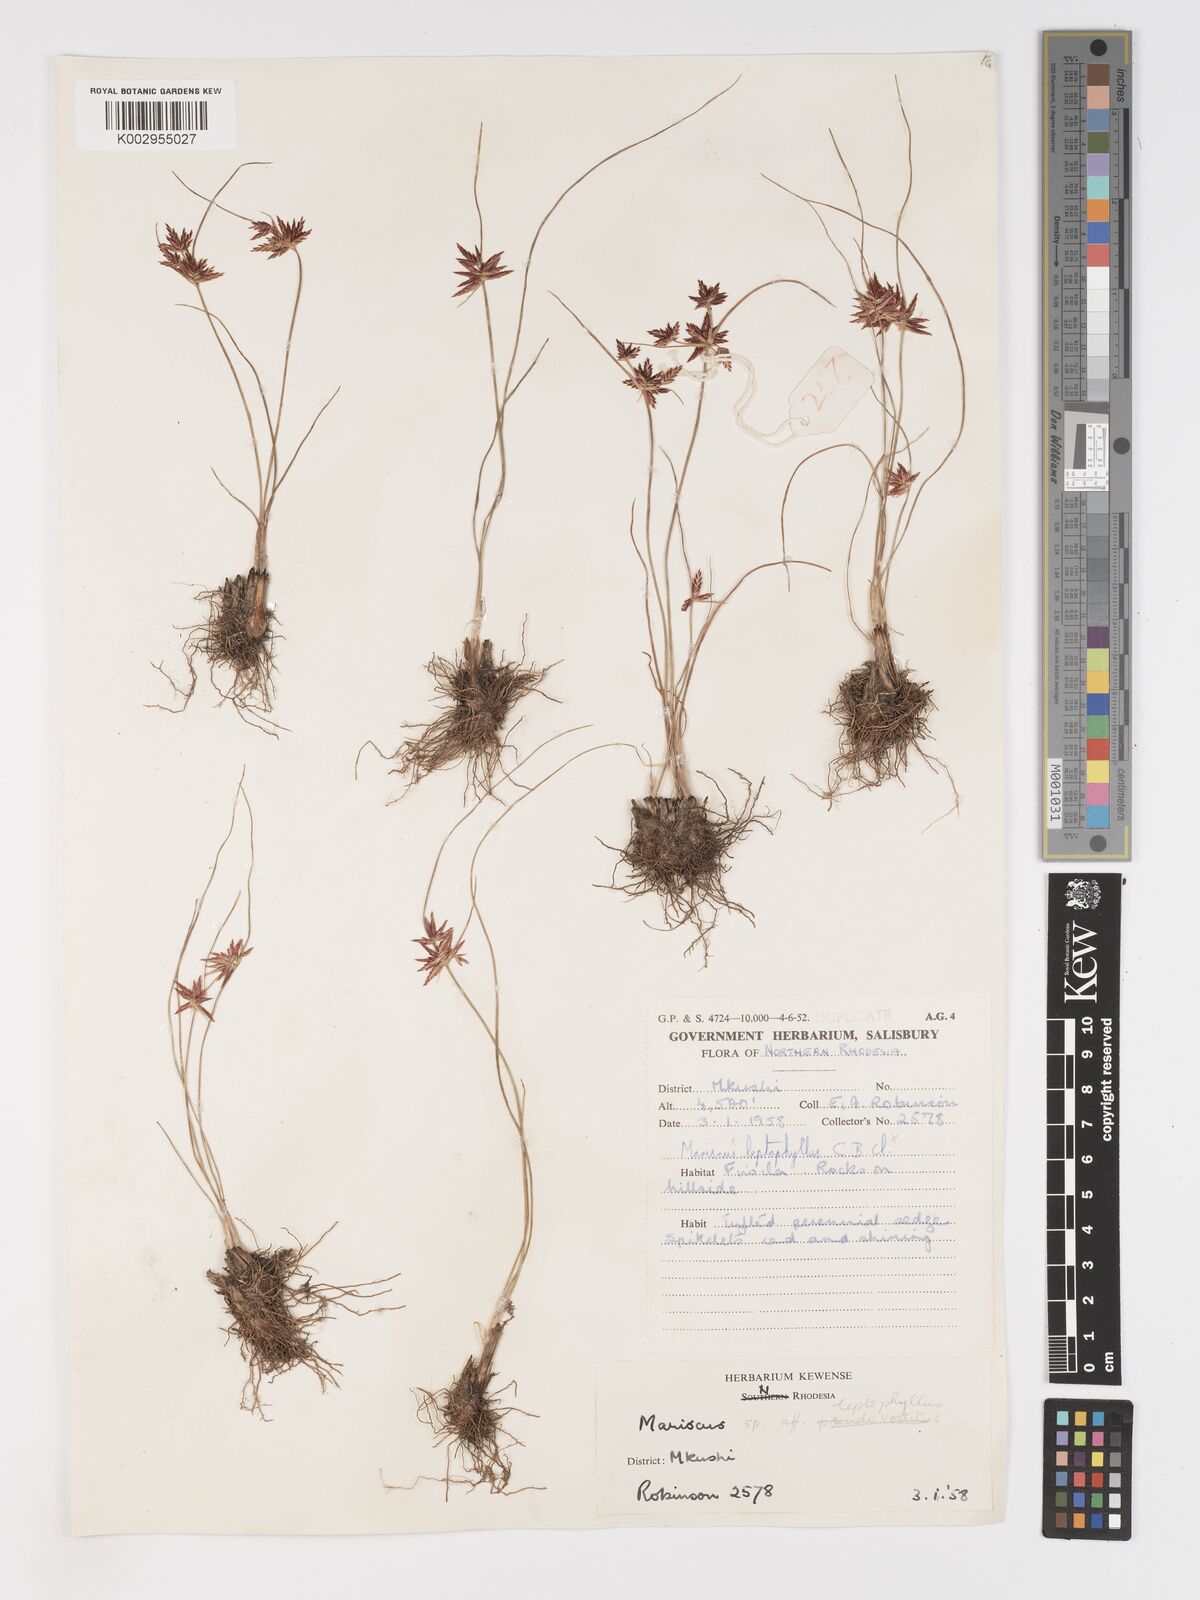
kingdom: Plantae
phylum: Tracheophyta
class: Liliopsida
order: Poales
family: Cyperaceae
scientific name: Cyperaceae
